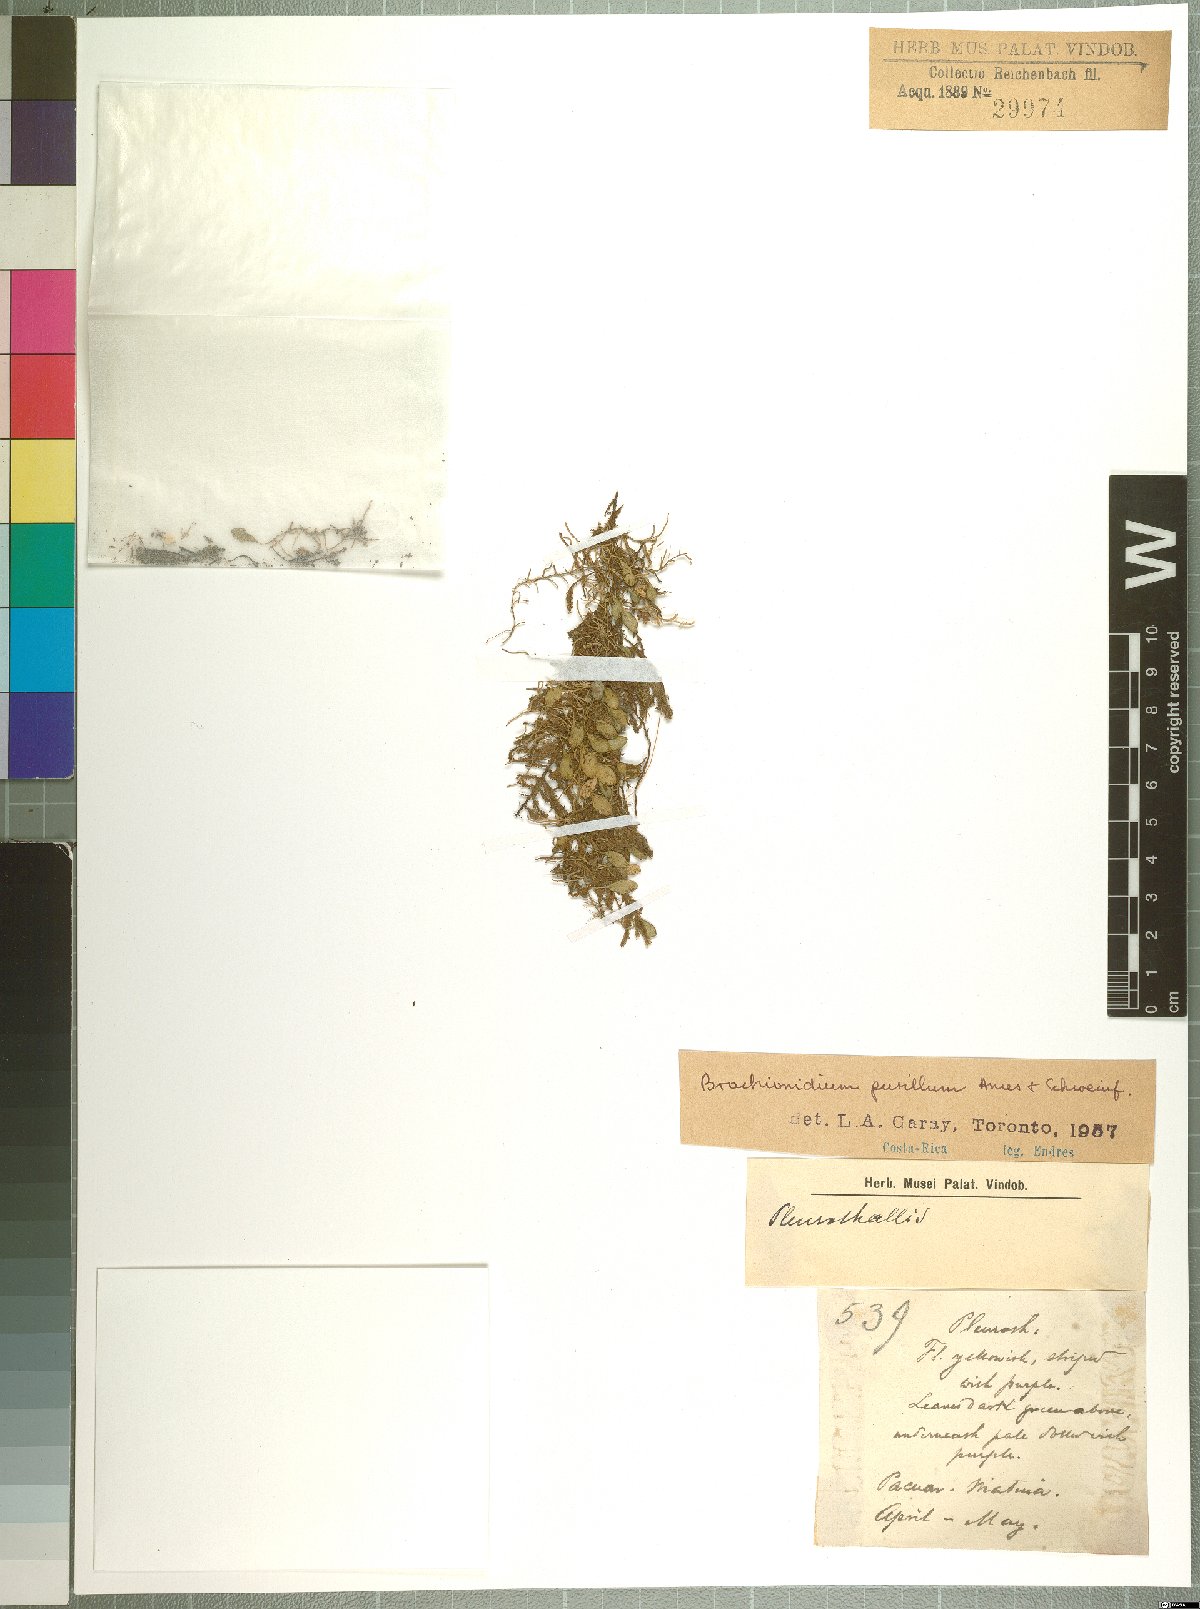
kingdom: Plantae
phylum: Tracheophyta
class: Liliopsida
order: Asparagales
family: Orchidaceae
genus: Brachionidium
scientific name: Brachionidium pusillum
